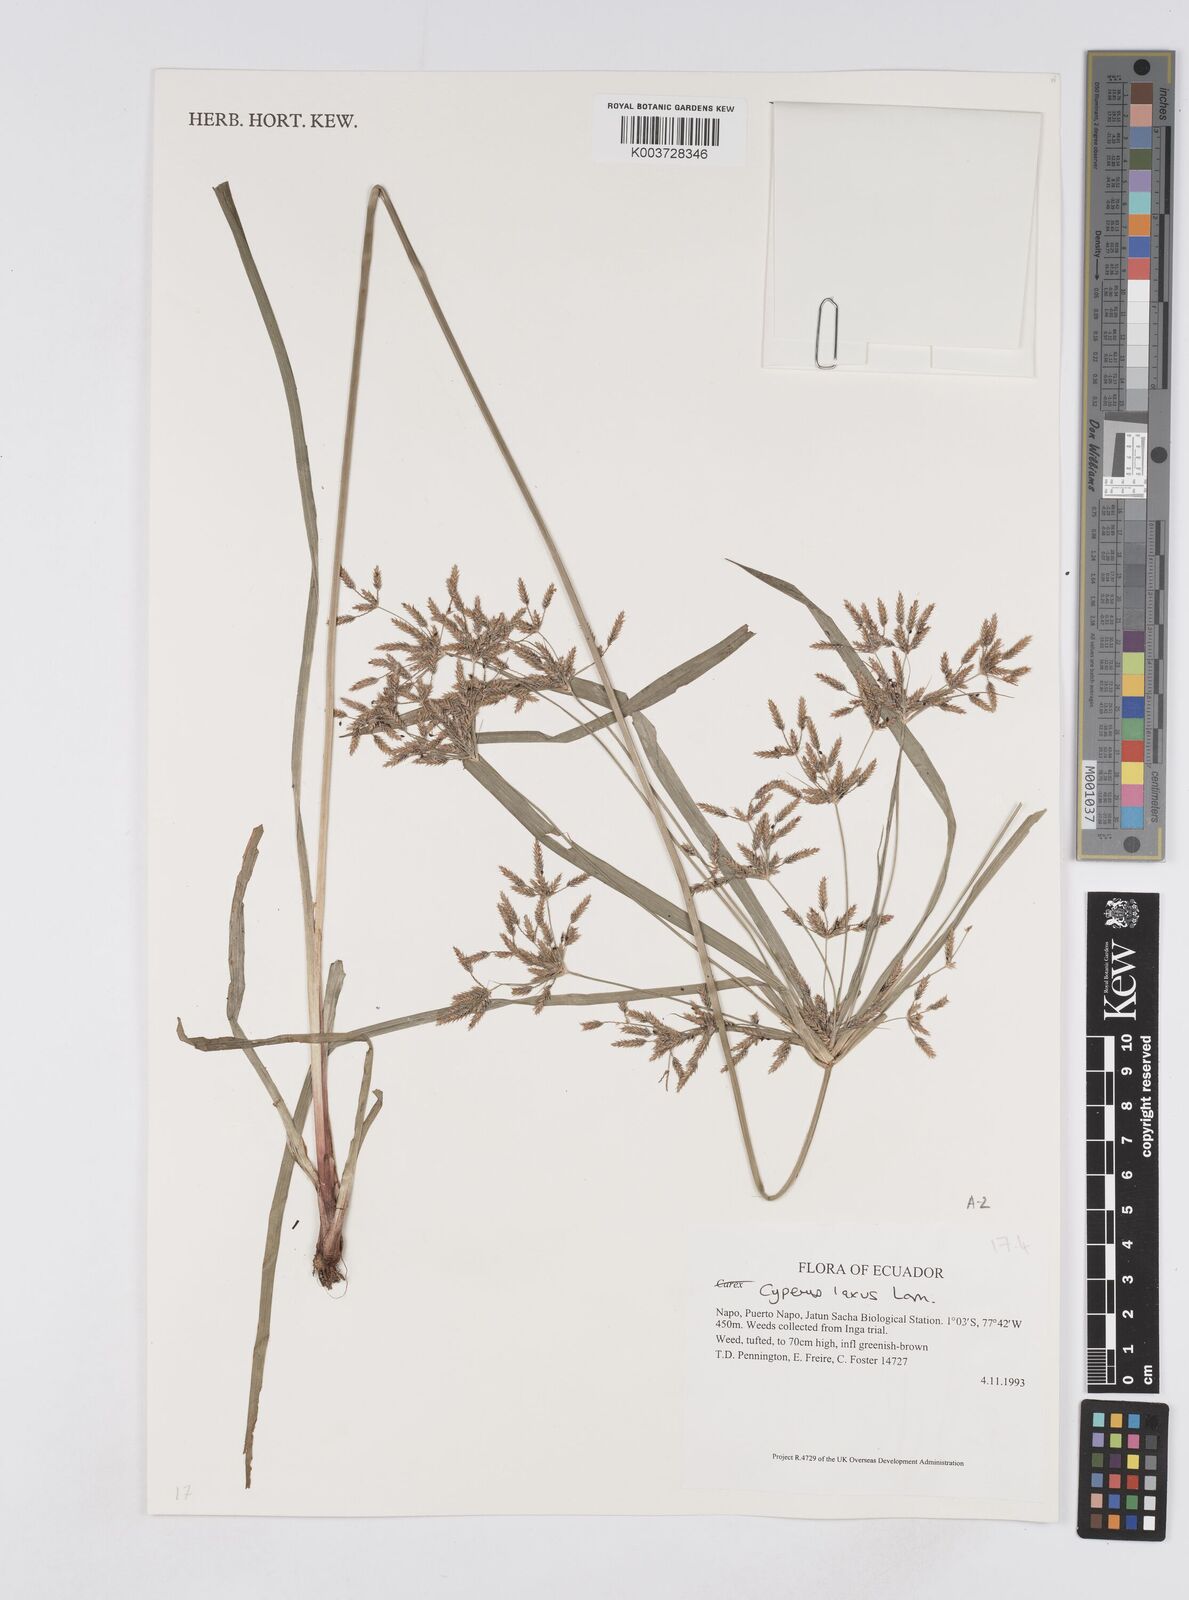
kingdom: Plantae
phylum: Tracheophyta
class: Liliopsida
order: Poales
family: Cyperaceae
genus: Cyperus
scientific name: Cyperus laxus
